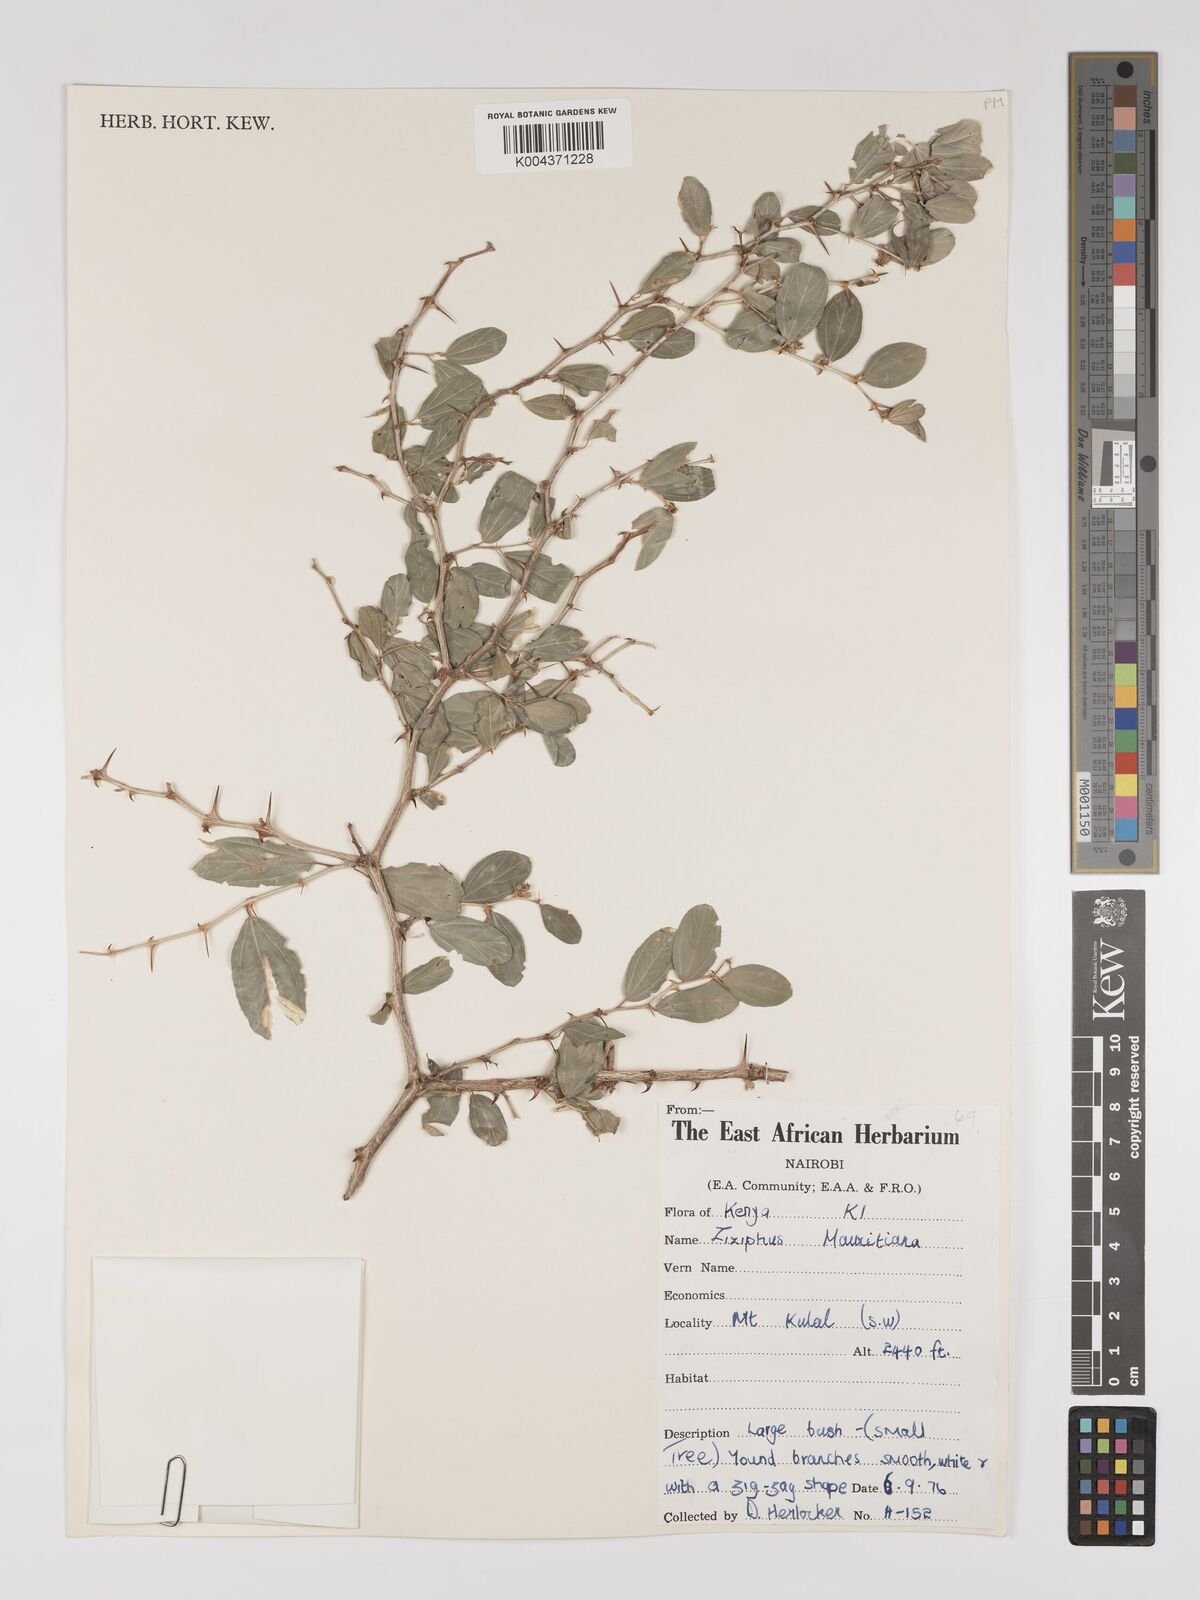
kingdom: Plantae
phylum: Tracheophyta
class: Magnoliopsida
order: Rosales
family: Rhamnaceae
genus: Ziziphus
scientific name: Ziziphus mauritiana
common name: Indian jujube
